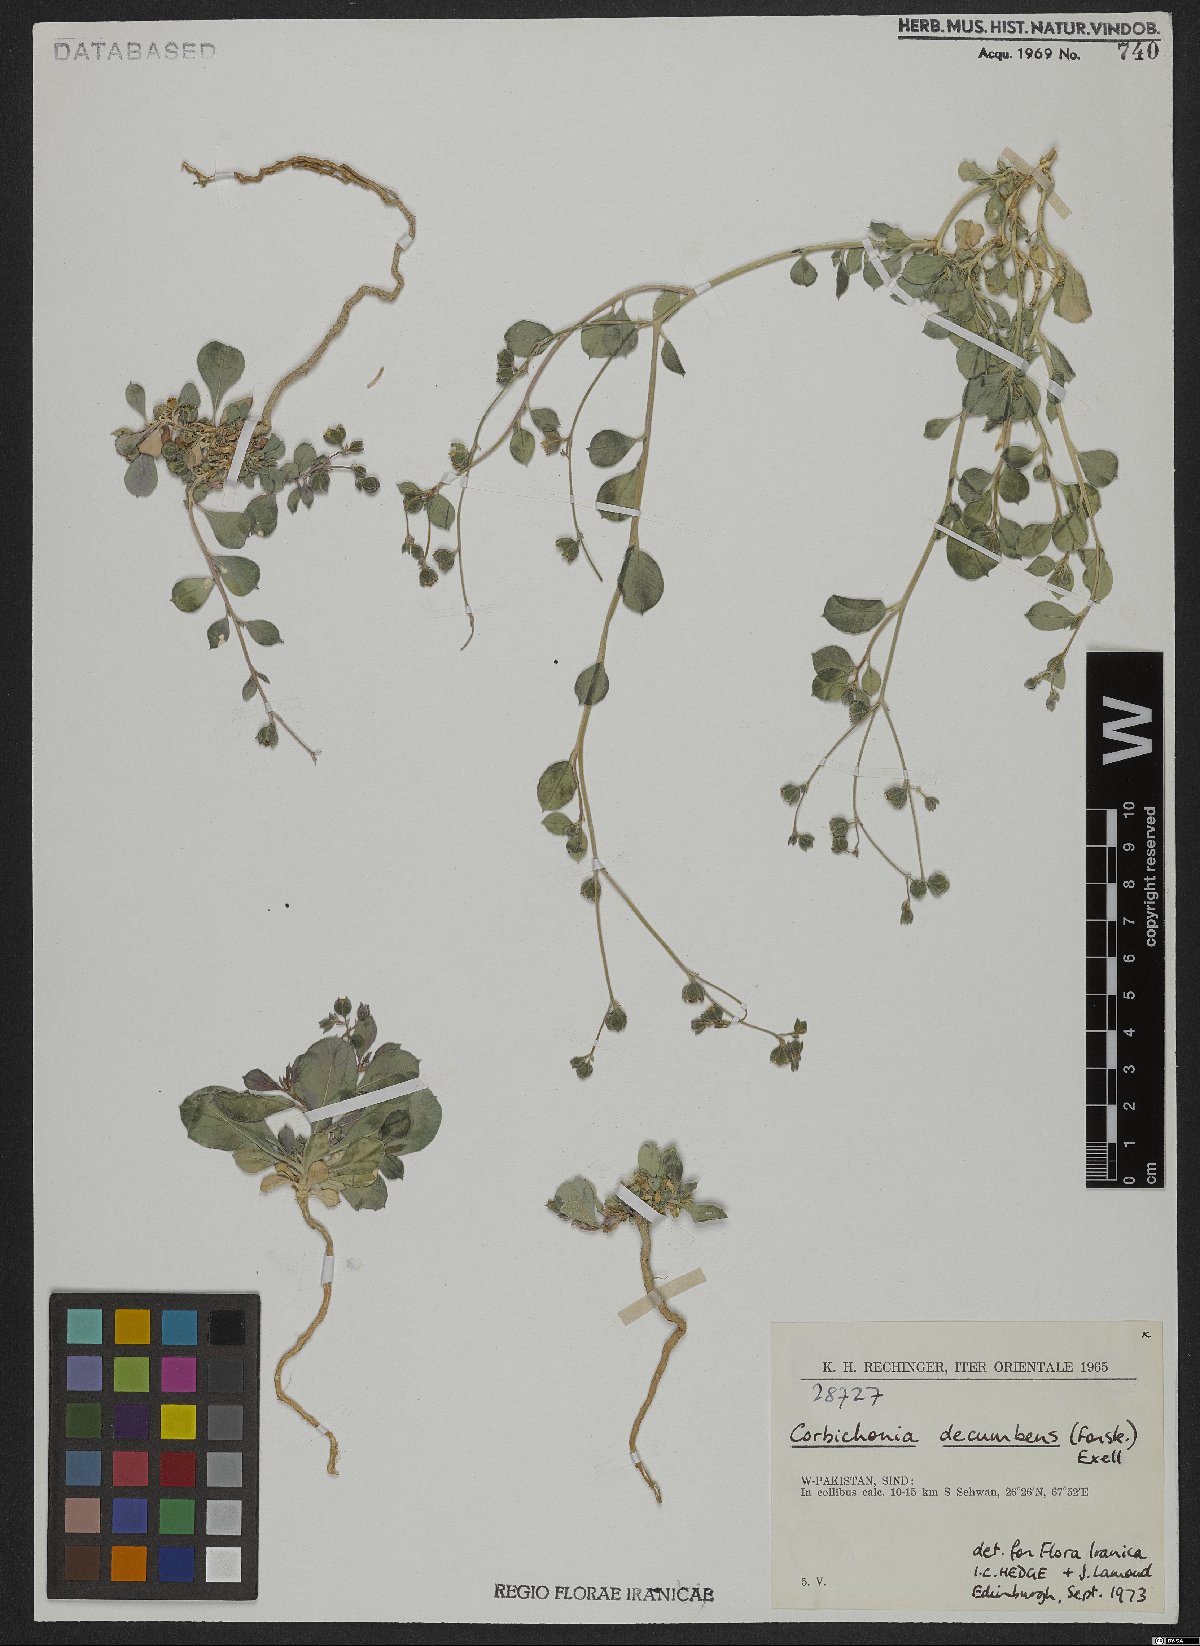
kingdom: Plantae
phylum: Tracheophyta
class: Magnoliopsida
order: Caryophyllales
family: Corbichoniaceae
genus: Corbichonia
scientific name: Corbichonia decumbens
